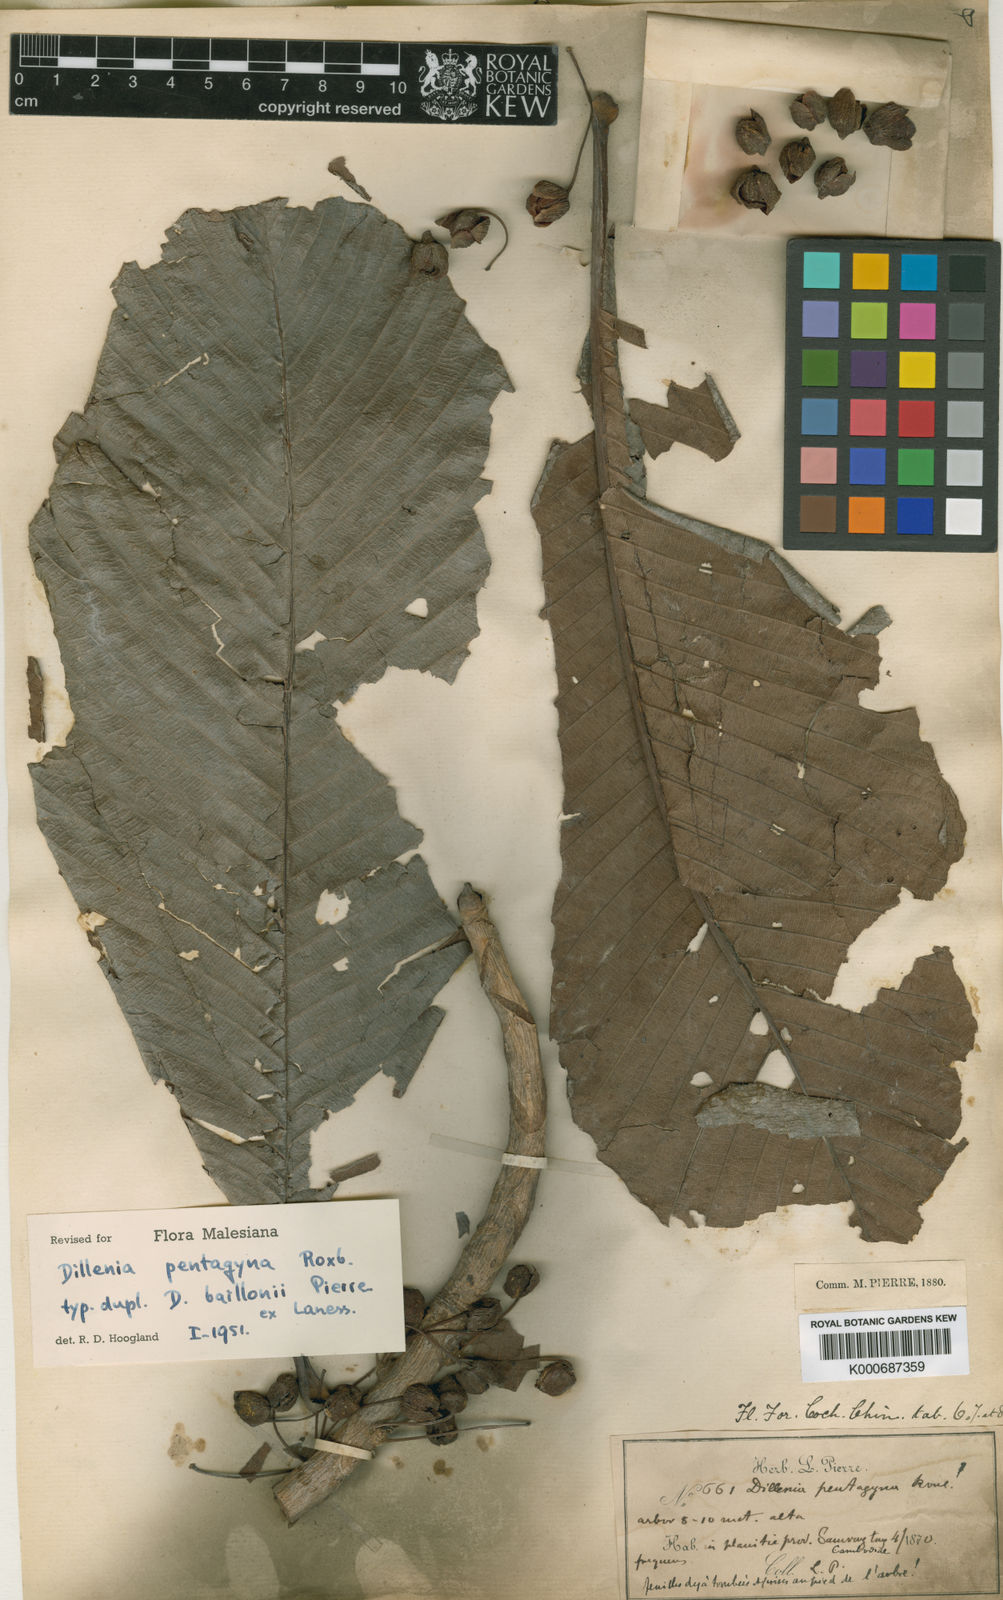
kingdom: Plantae
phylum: Tracheophyta
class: Magnoliopsida
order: Dilleniales
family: Dilleniaceae
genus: Dillenia
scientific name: Dillenia pentagyna
